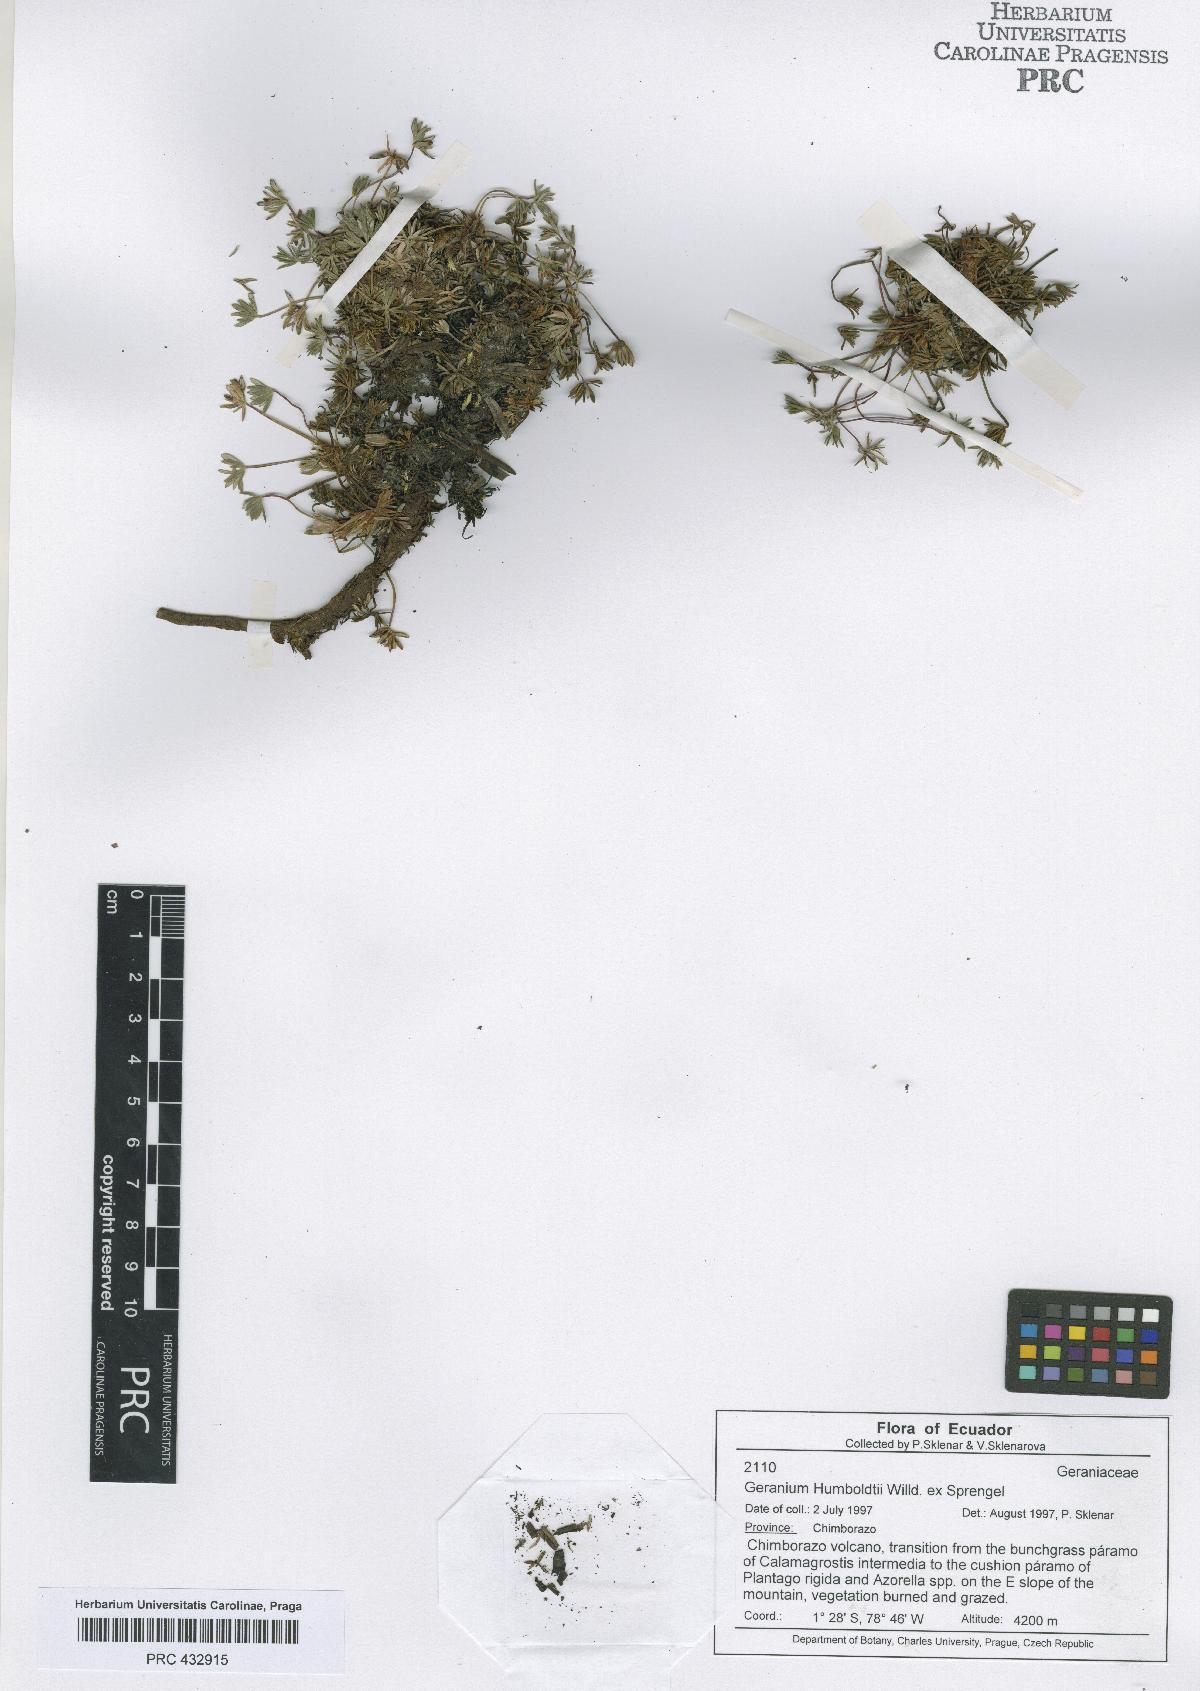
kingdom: Plantae
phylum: Tracheophyta
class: Magnoliopsida
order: Geraniales
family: Geraniaceae
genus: Geranium
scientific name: Geranium humboldtii
